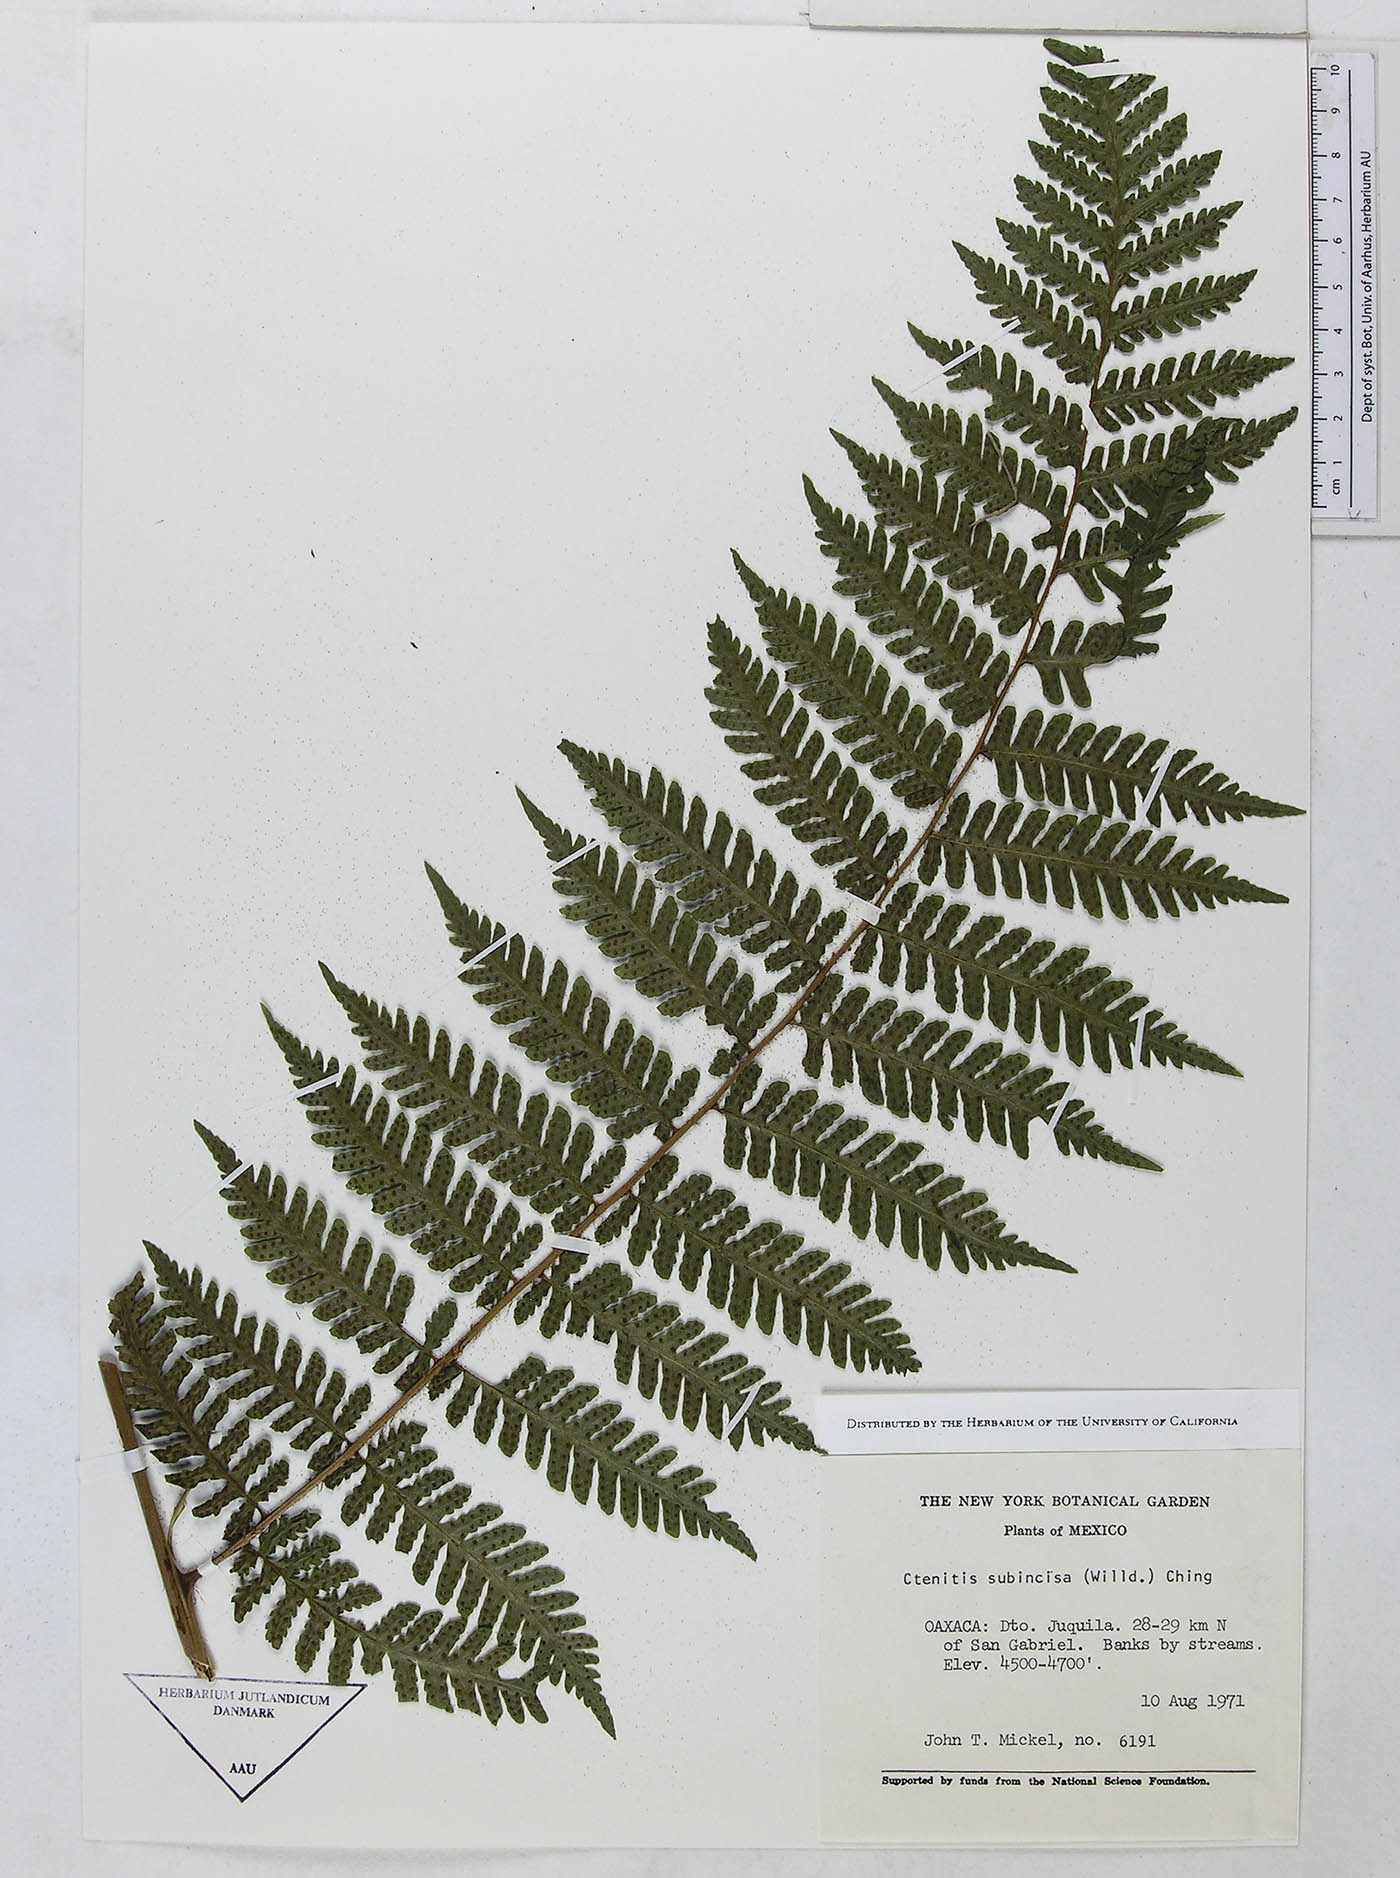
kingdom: Plantae
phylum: Tracheophyta
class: Polypodiopsida
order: Polypodiales
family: Dryopteridaceae
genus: Megalastrum
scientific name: Megalastrum galeottii
